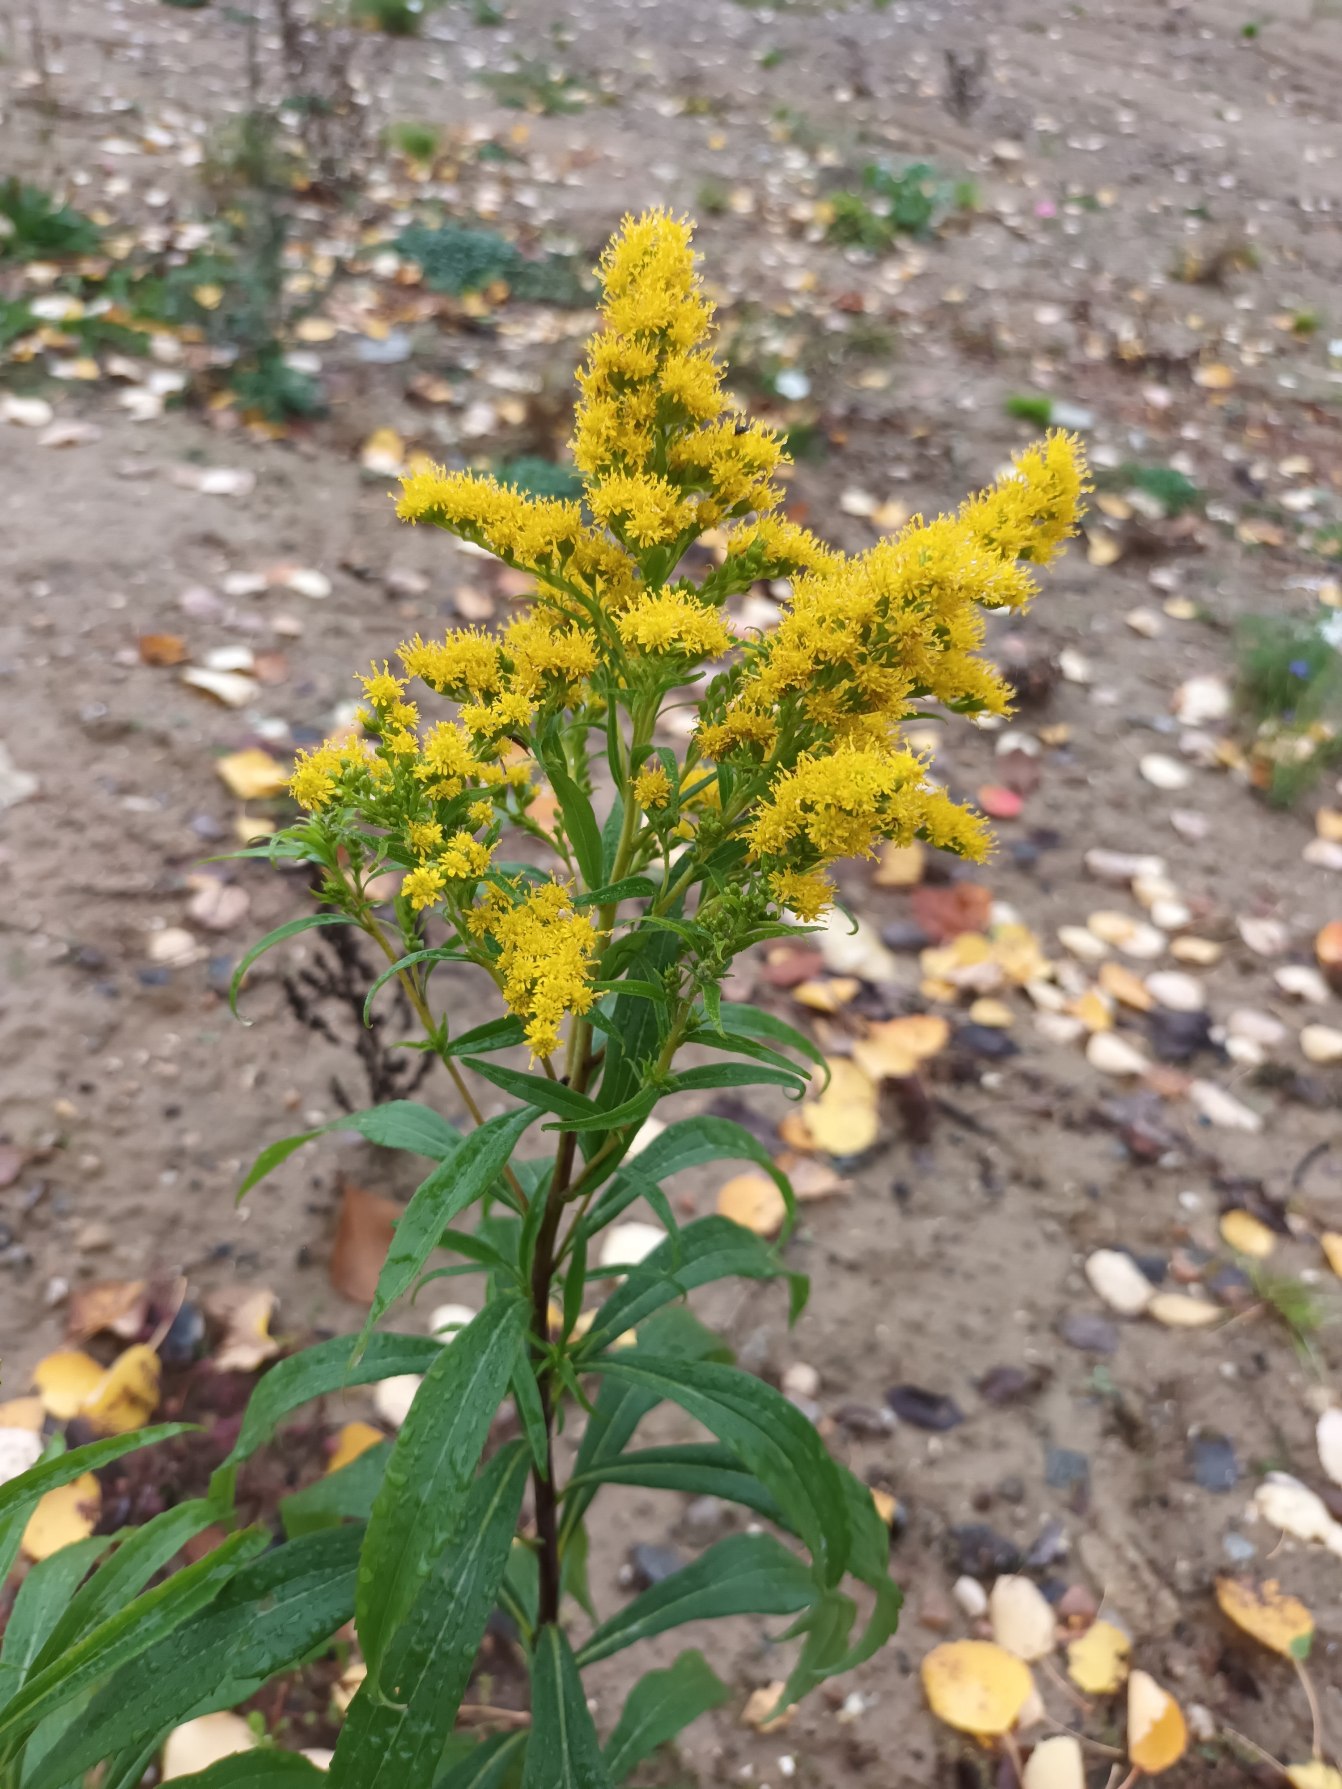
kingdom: Plantae
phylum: Tracheophyta
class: Magnoliopsida
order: Asterales
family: Asteraceae
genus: Solidago
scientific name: Solidago gigantea
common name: Sildig gyldenris
